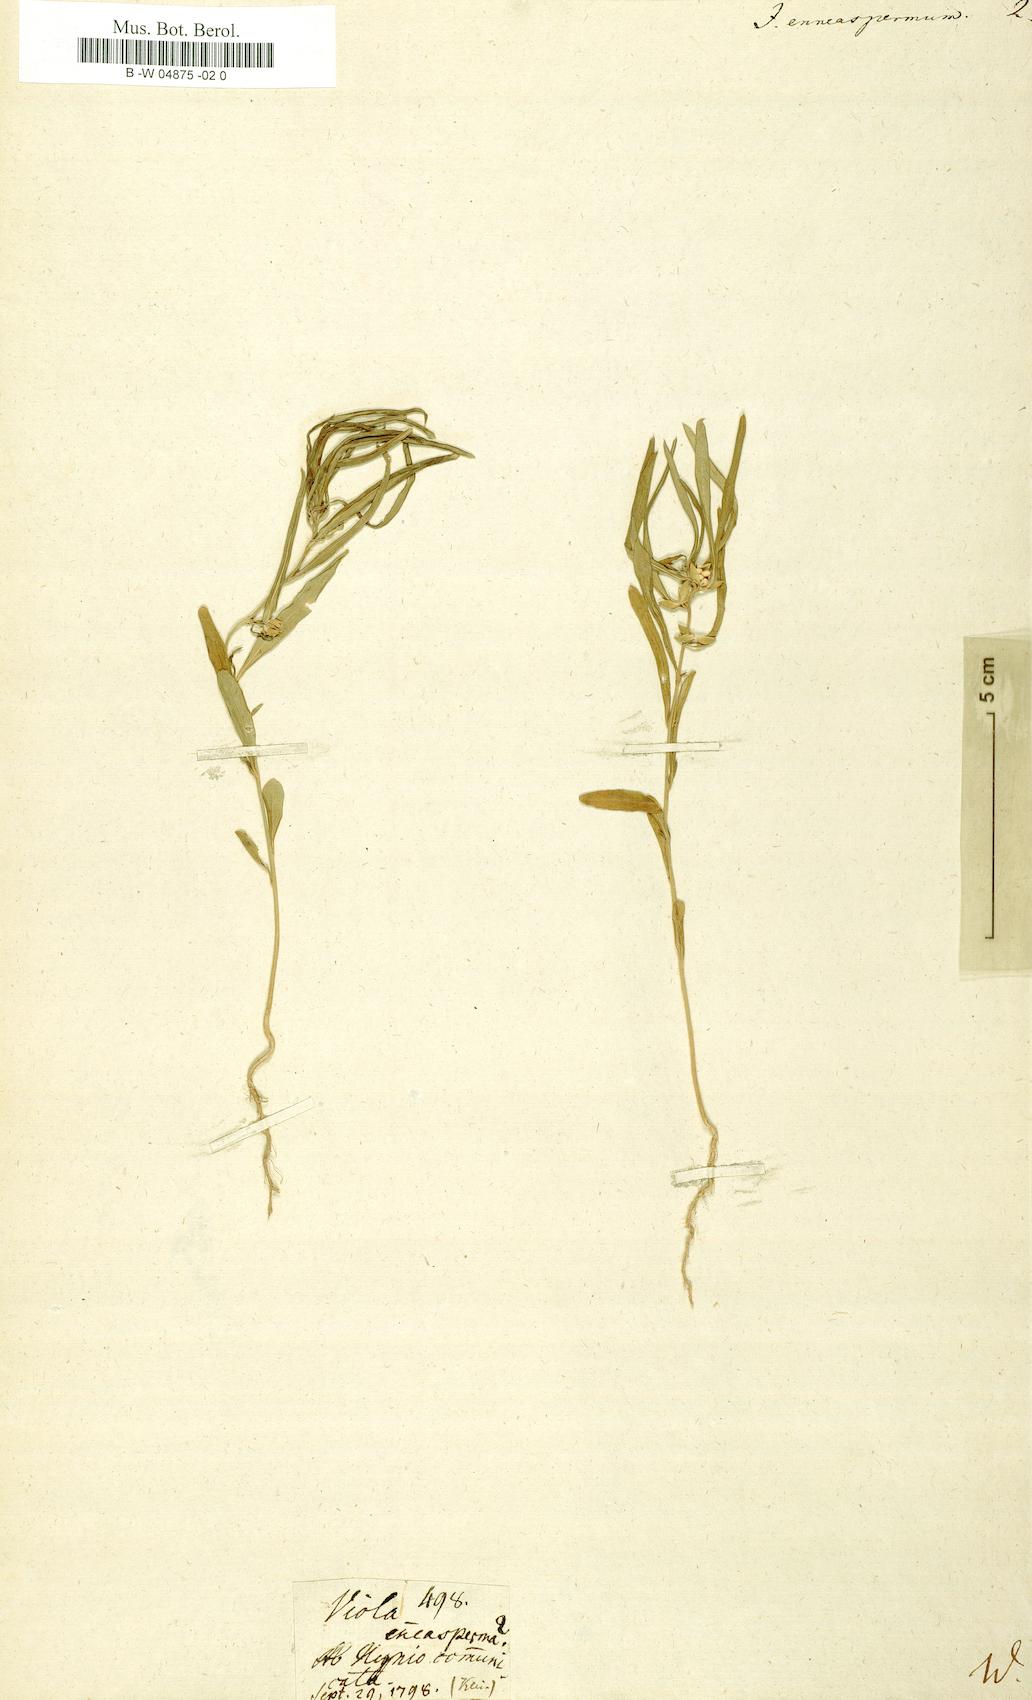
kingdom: Plantae
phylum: Tracheophyta
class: Magnoliopsida
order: Malpighiales
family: Violaceae
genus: Pigea
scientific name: Pigea enneasperma
